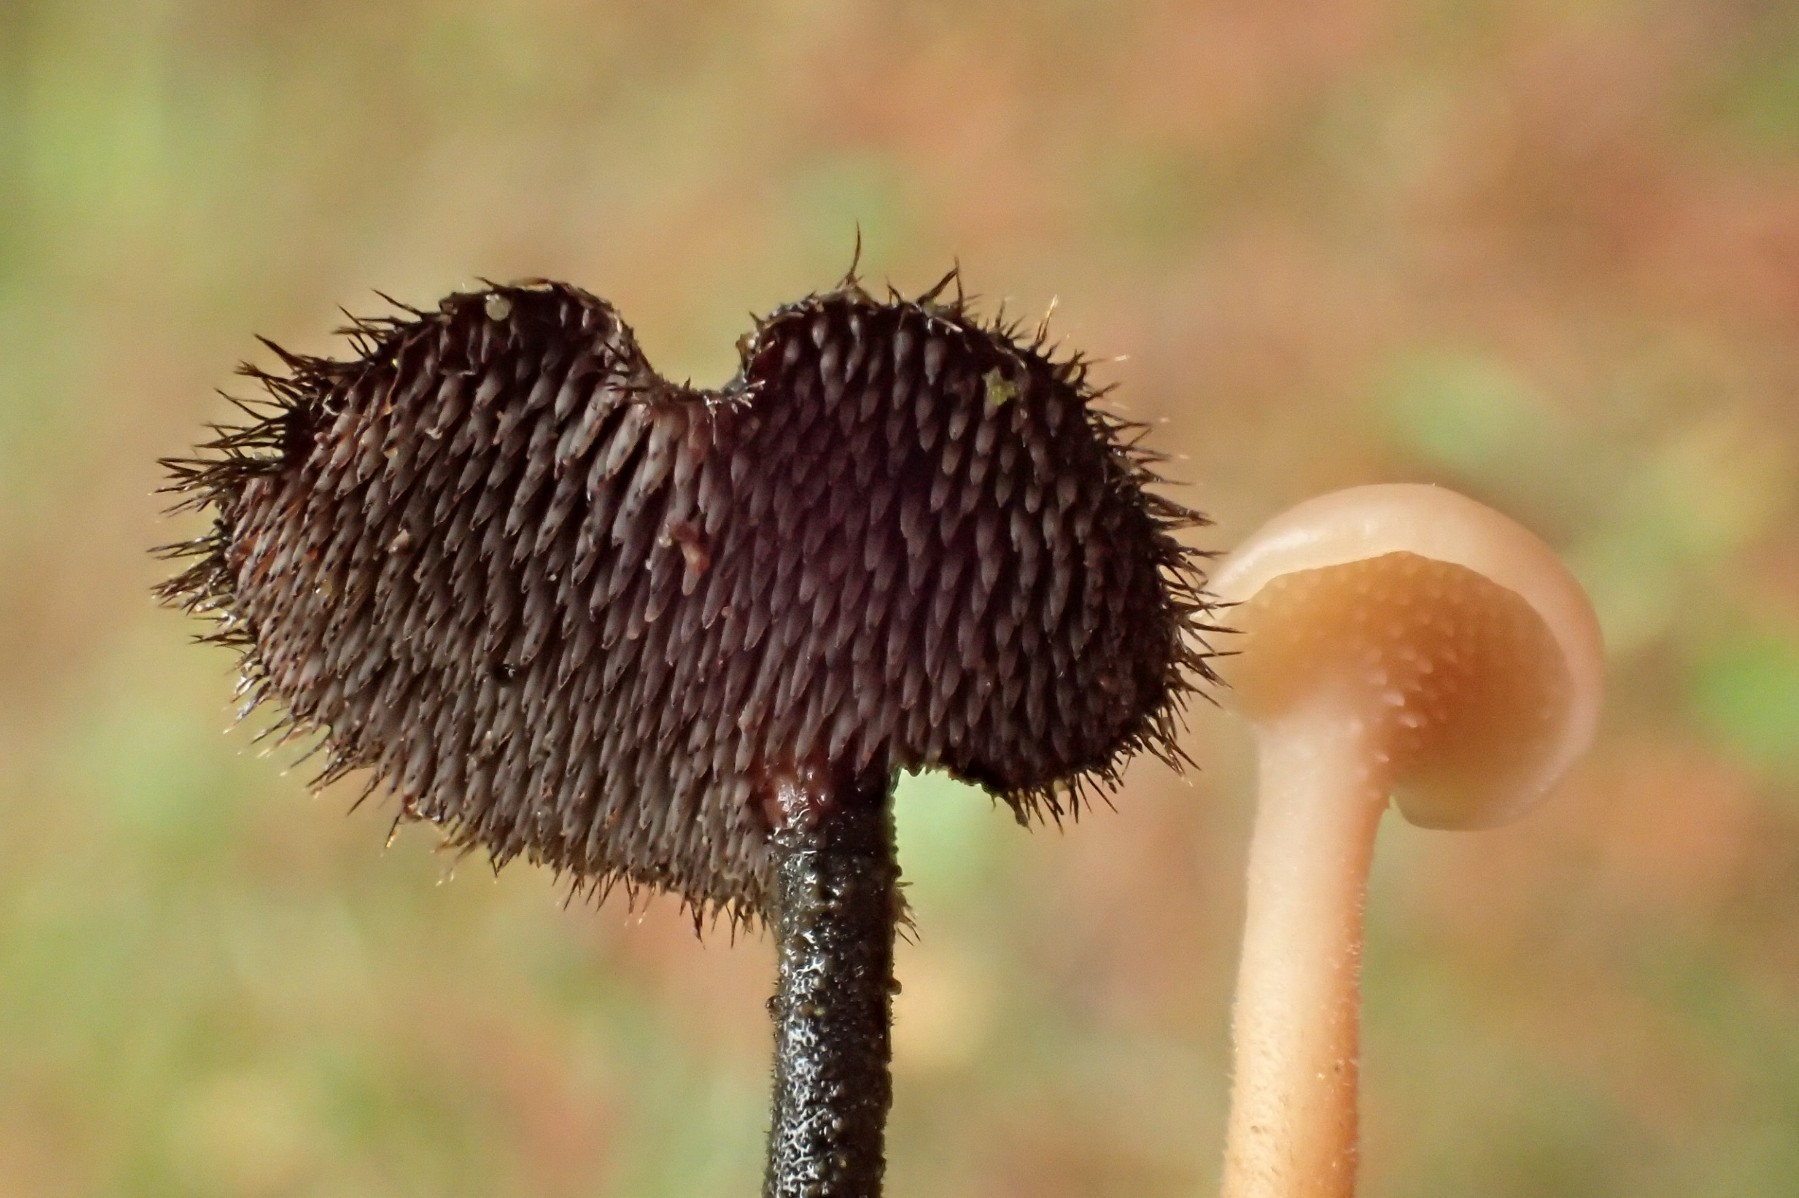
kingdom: Fungi
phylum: Basidiomycota
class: Agaricomycetes
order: Russulales
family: Auriscalpiaceae
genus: Auriscalpium
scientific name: Auriscalpium vulgare
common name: koglepigsvamp
